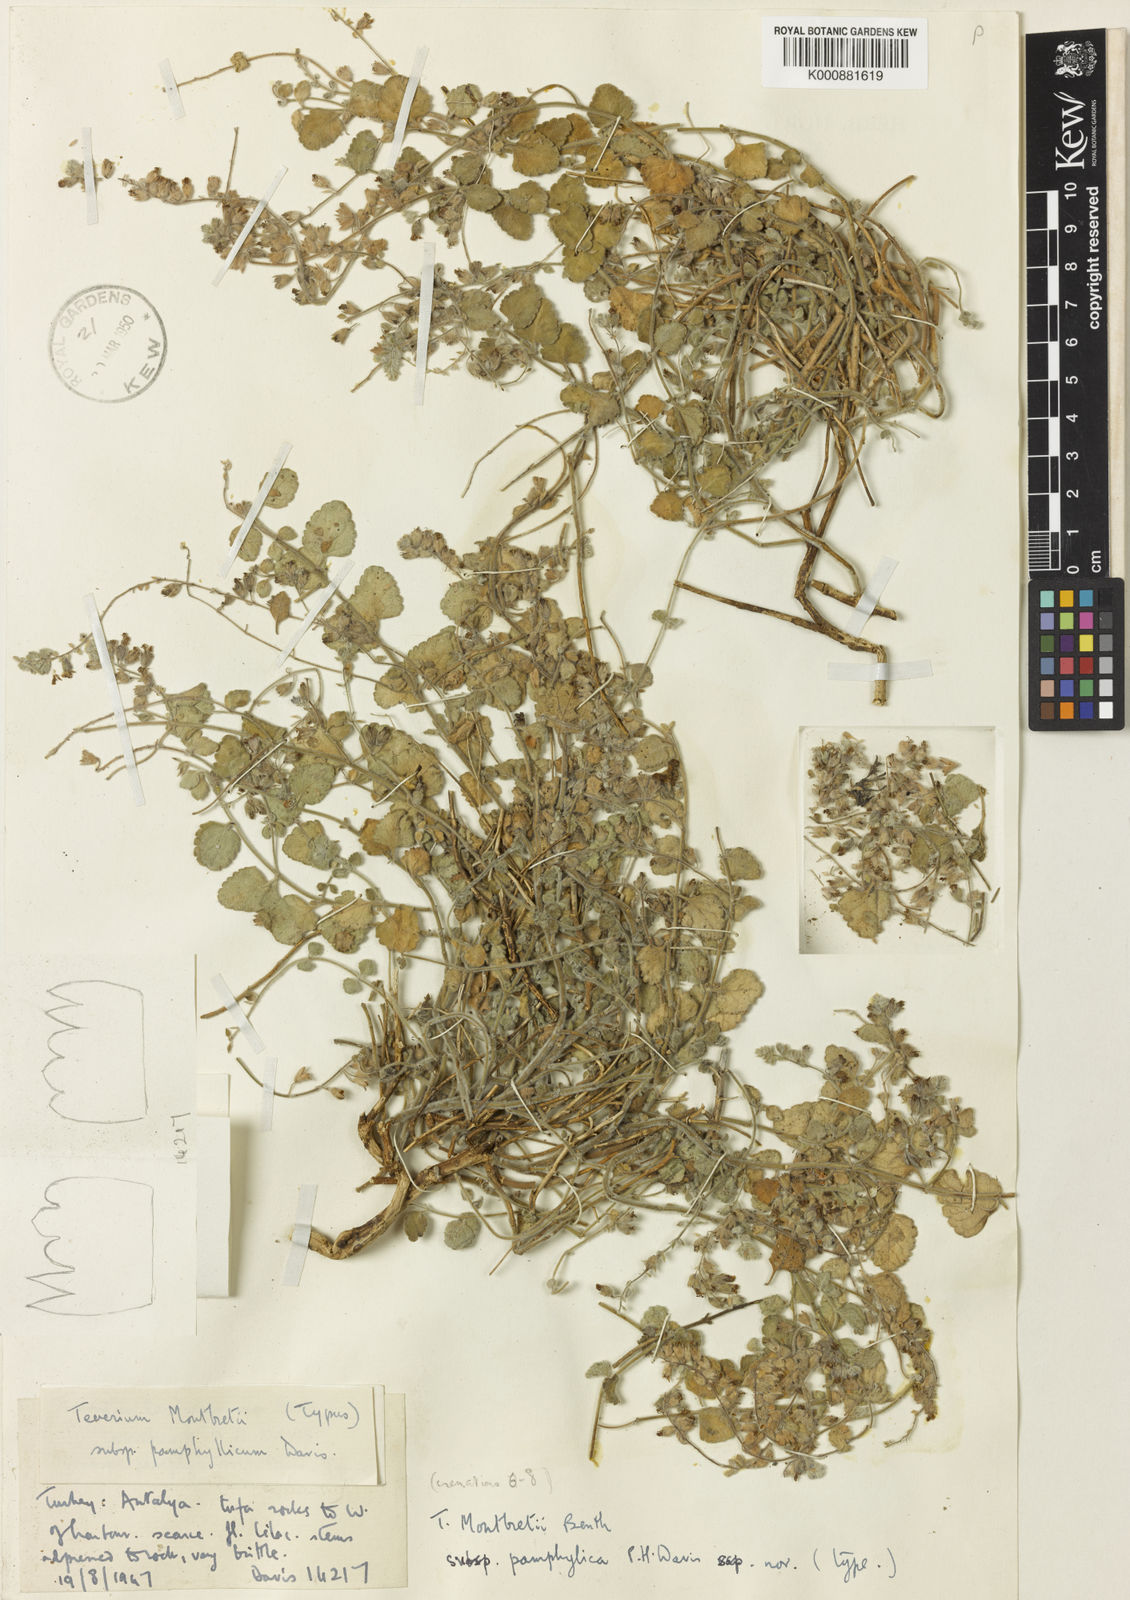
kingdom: Plantae
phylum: Tracheophyta
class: Magnoliopsida
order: Lamiales
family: Lamiaceae
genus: Teucrium
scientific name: Teucrium montbretii
